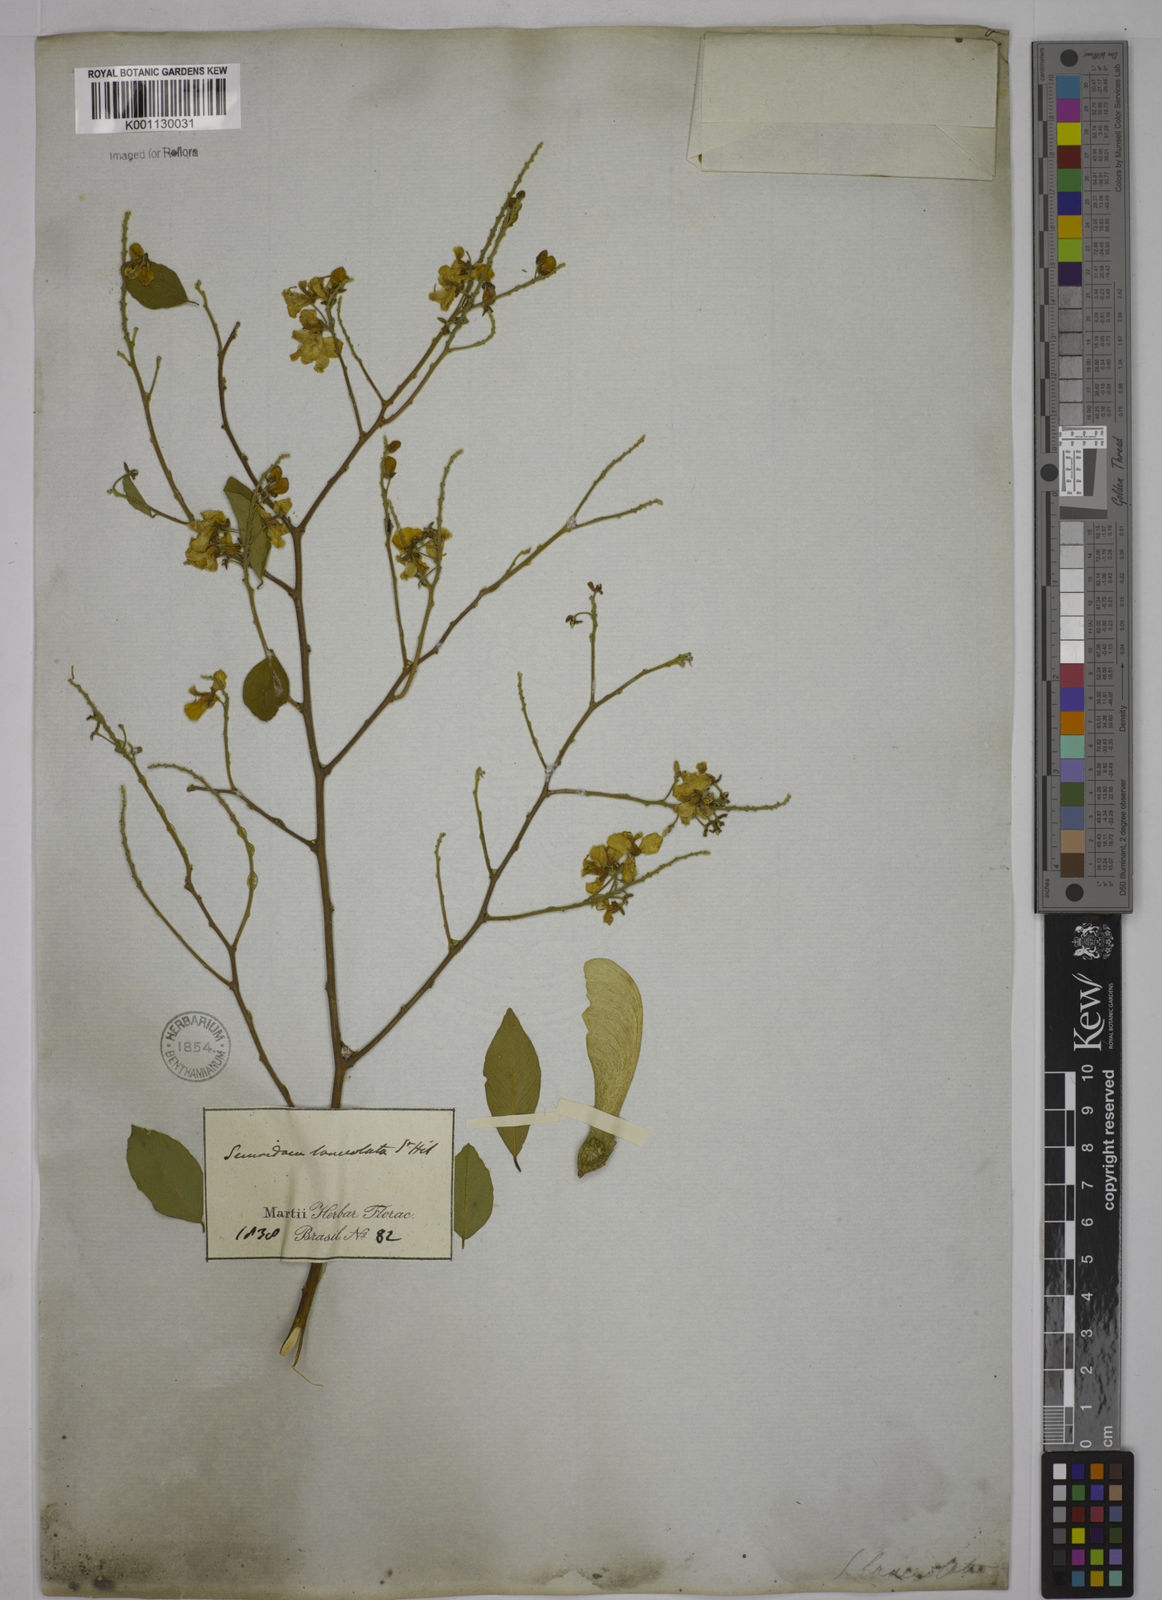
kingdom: Plantae
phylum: Tracheophyta
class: Magnoliopsida
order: Fabales
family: Polygalaceae
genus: Securidaca
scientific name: Securidaca lanceolata
